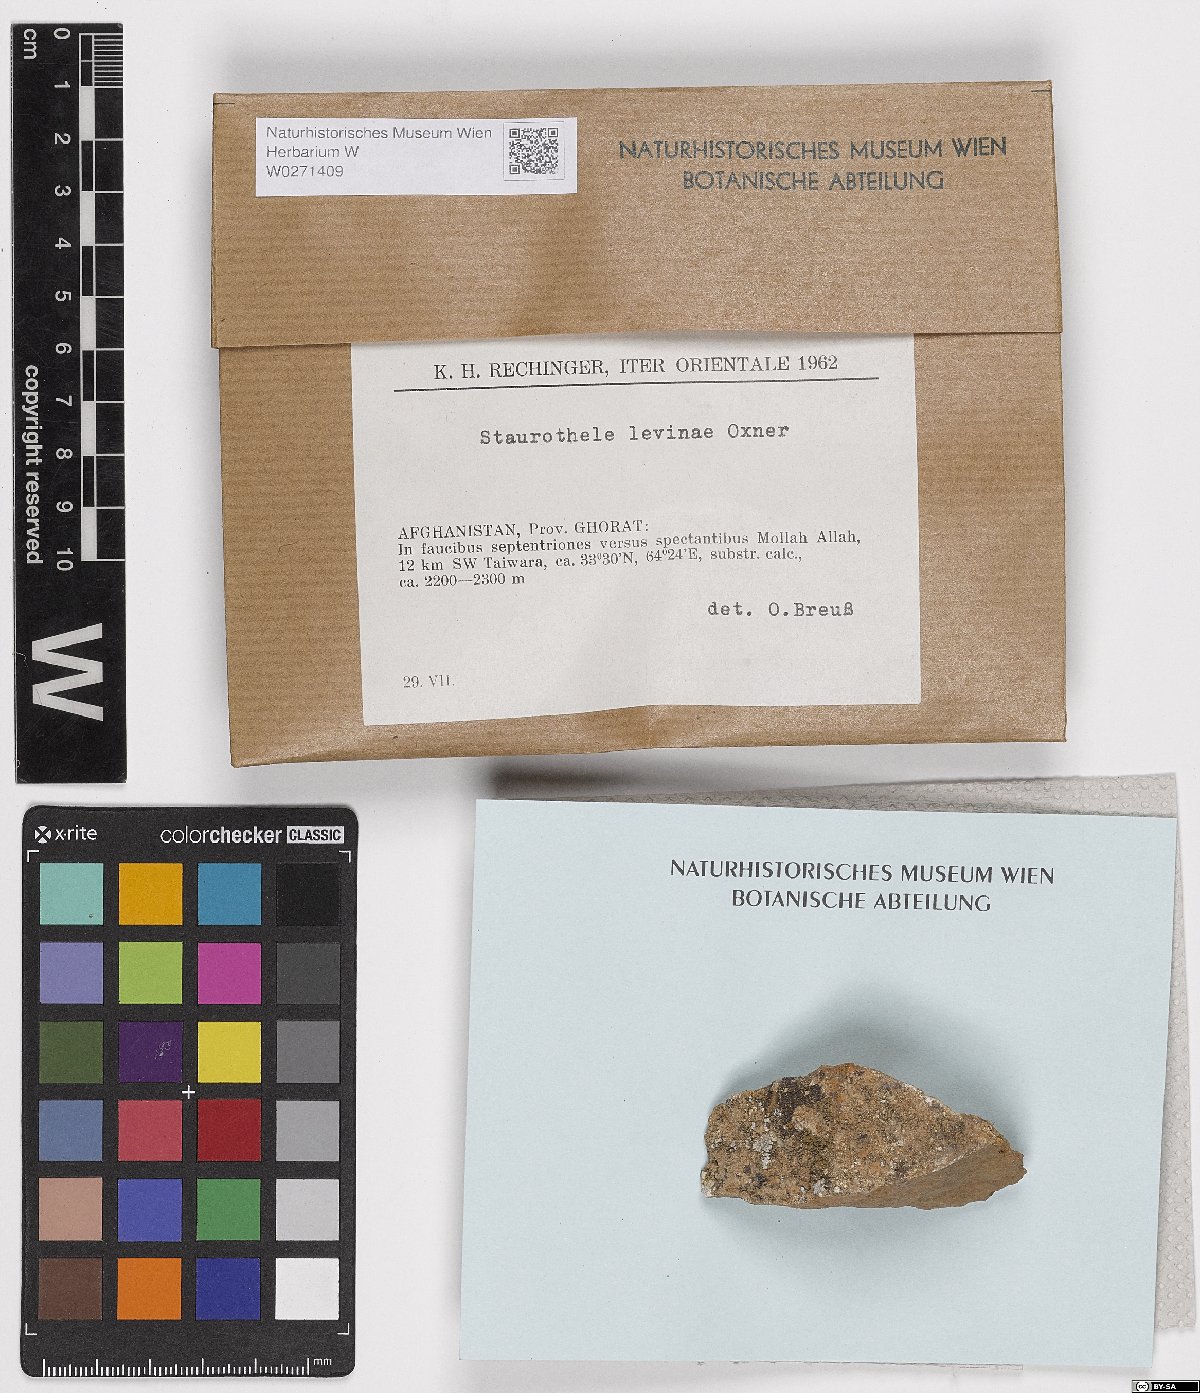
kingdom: Fungi
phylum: Ascomycota
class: Eurotiomycetes
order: Verrucariales
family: Verrucariaceae
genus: Staurothele
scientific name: Staurothele
